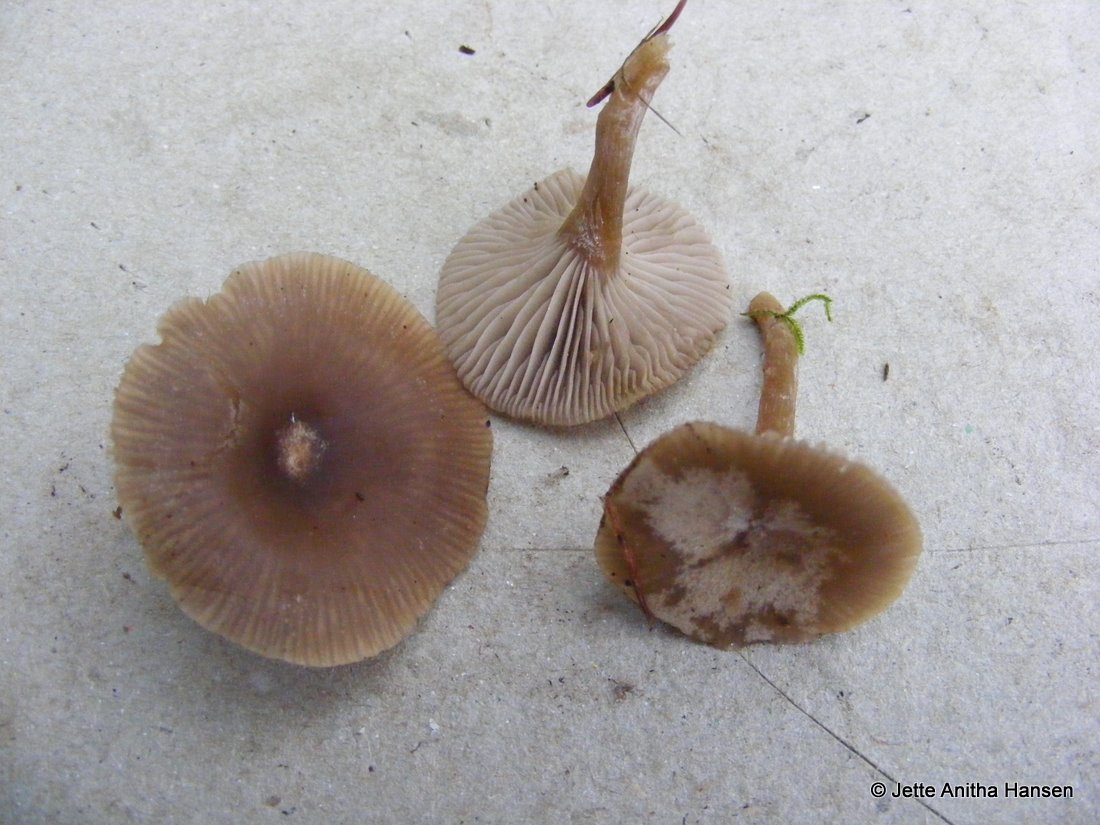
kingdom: Fungi
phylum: Basidiomycota
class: Agaricomycetes
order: Agaricales
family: Tricholomataceae
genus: Clitocybe
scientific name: Clitocybe vibecina
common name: randstribet tragthat
